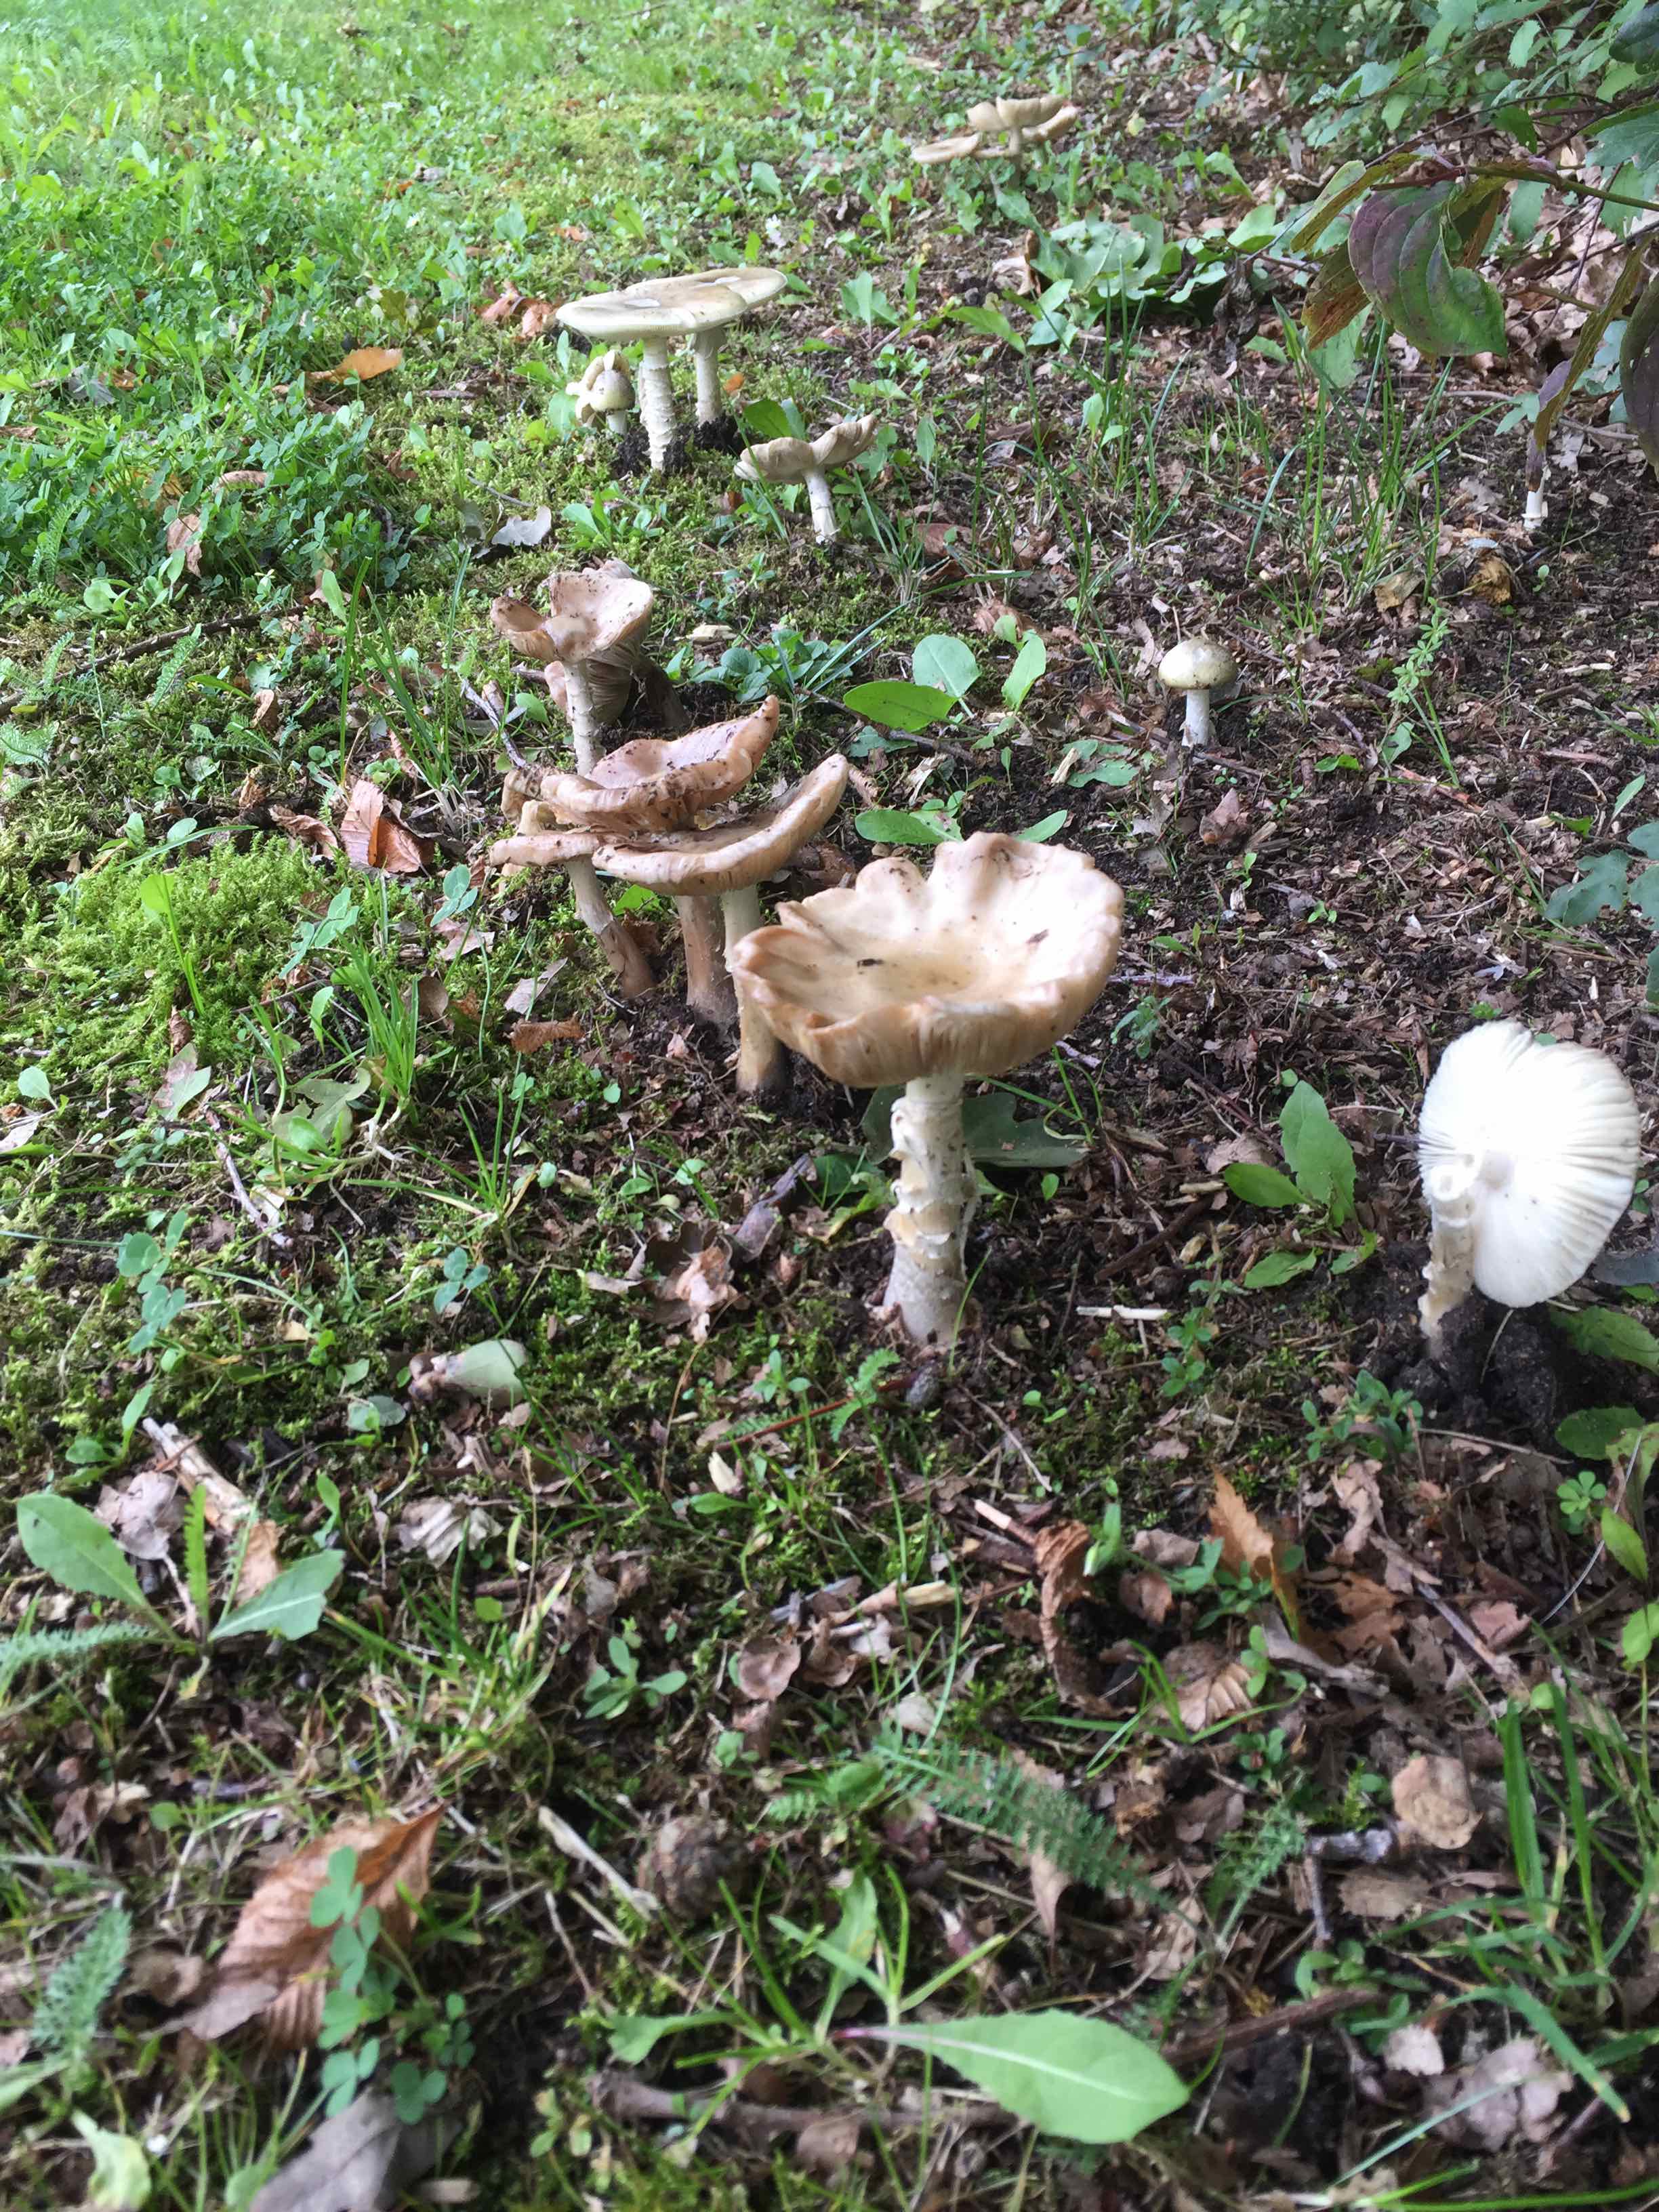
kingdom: Fungi
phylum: Basidiomycota
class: Agaricomycetes
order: Agaricales
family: Amanitaceae
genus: Amanita
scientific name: Amanita phalloides
